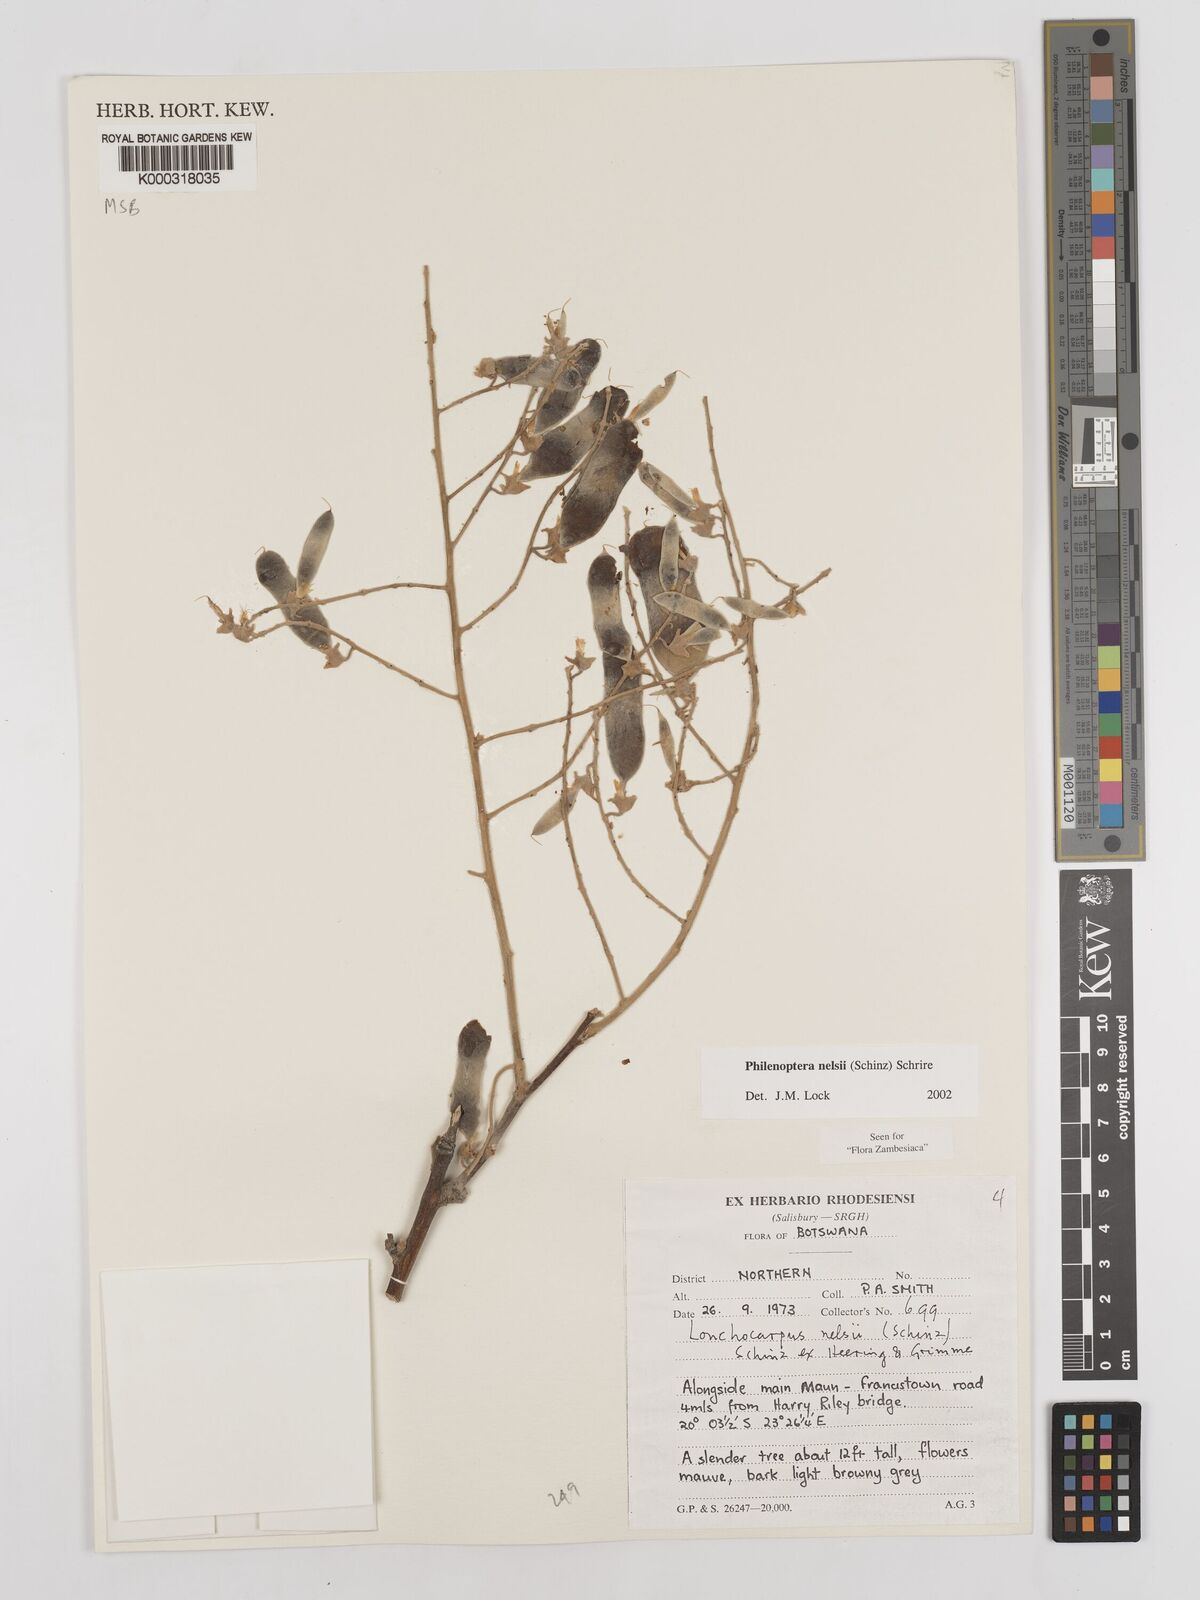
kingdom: Plantae
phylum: Tracheophyta
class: Magnoliopsida
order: Fabales
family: Fabaceae
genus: Philenoptera
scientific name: Philenoptera nelsii
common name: Kalahari apple-leaf
